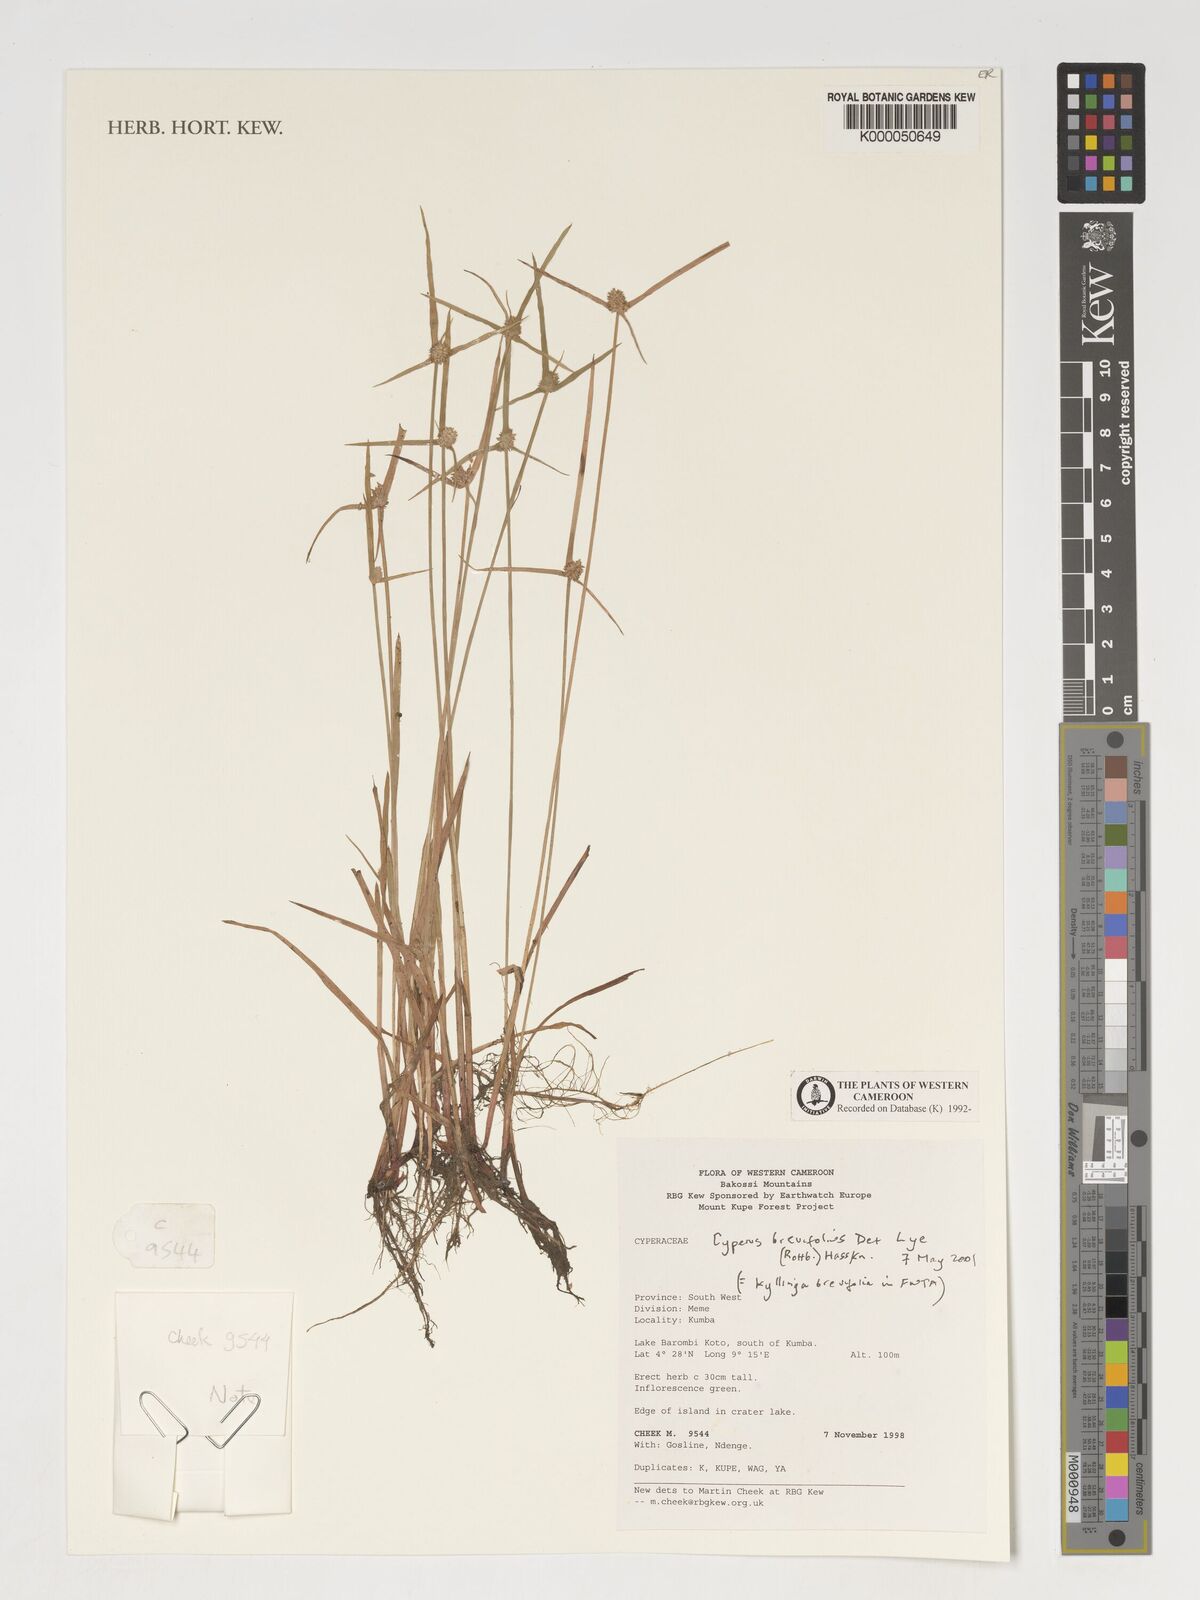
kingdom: Plantae
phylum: Tracheophyta
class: Liliopsida
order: Poales
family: Cyperaceae
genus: Cyperus
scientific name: Cyperus brevifolius
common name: Globe kyllinga
